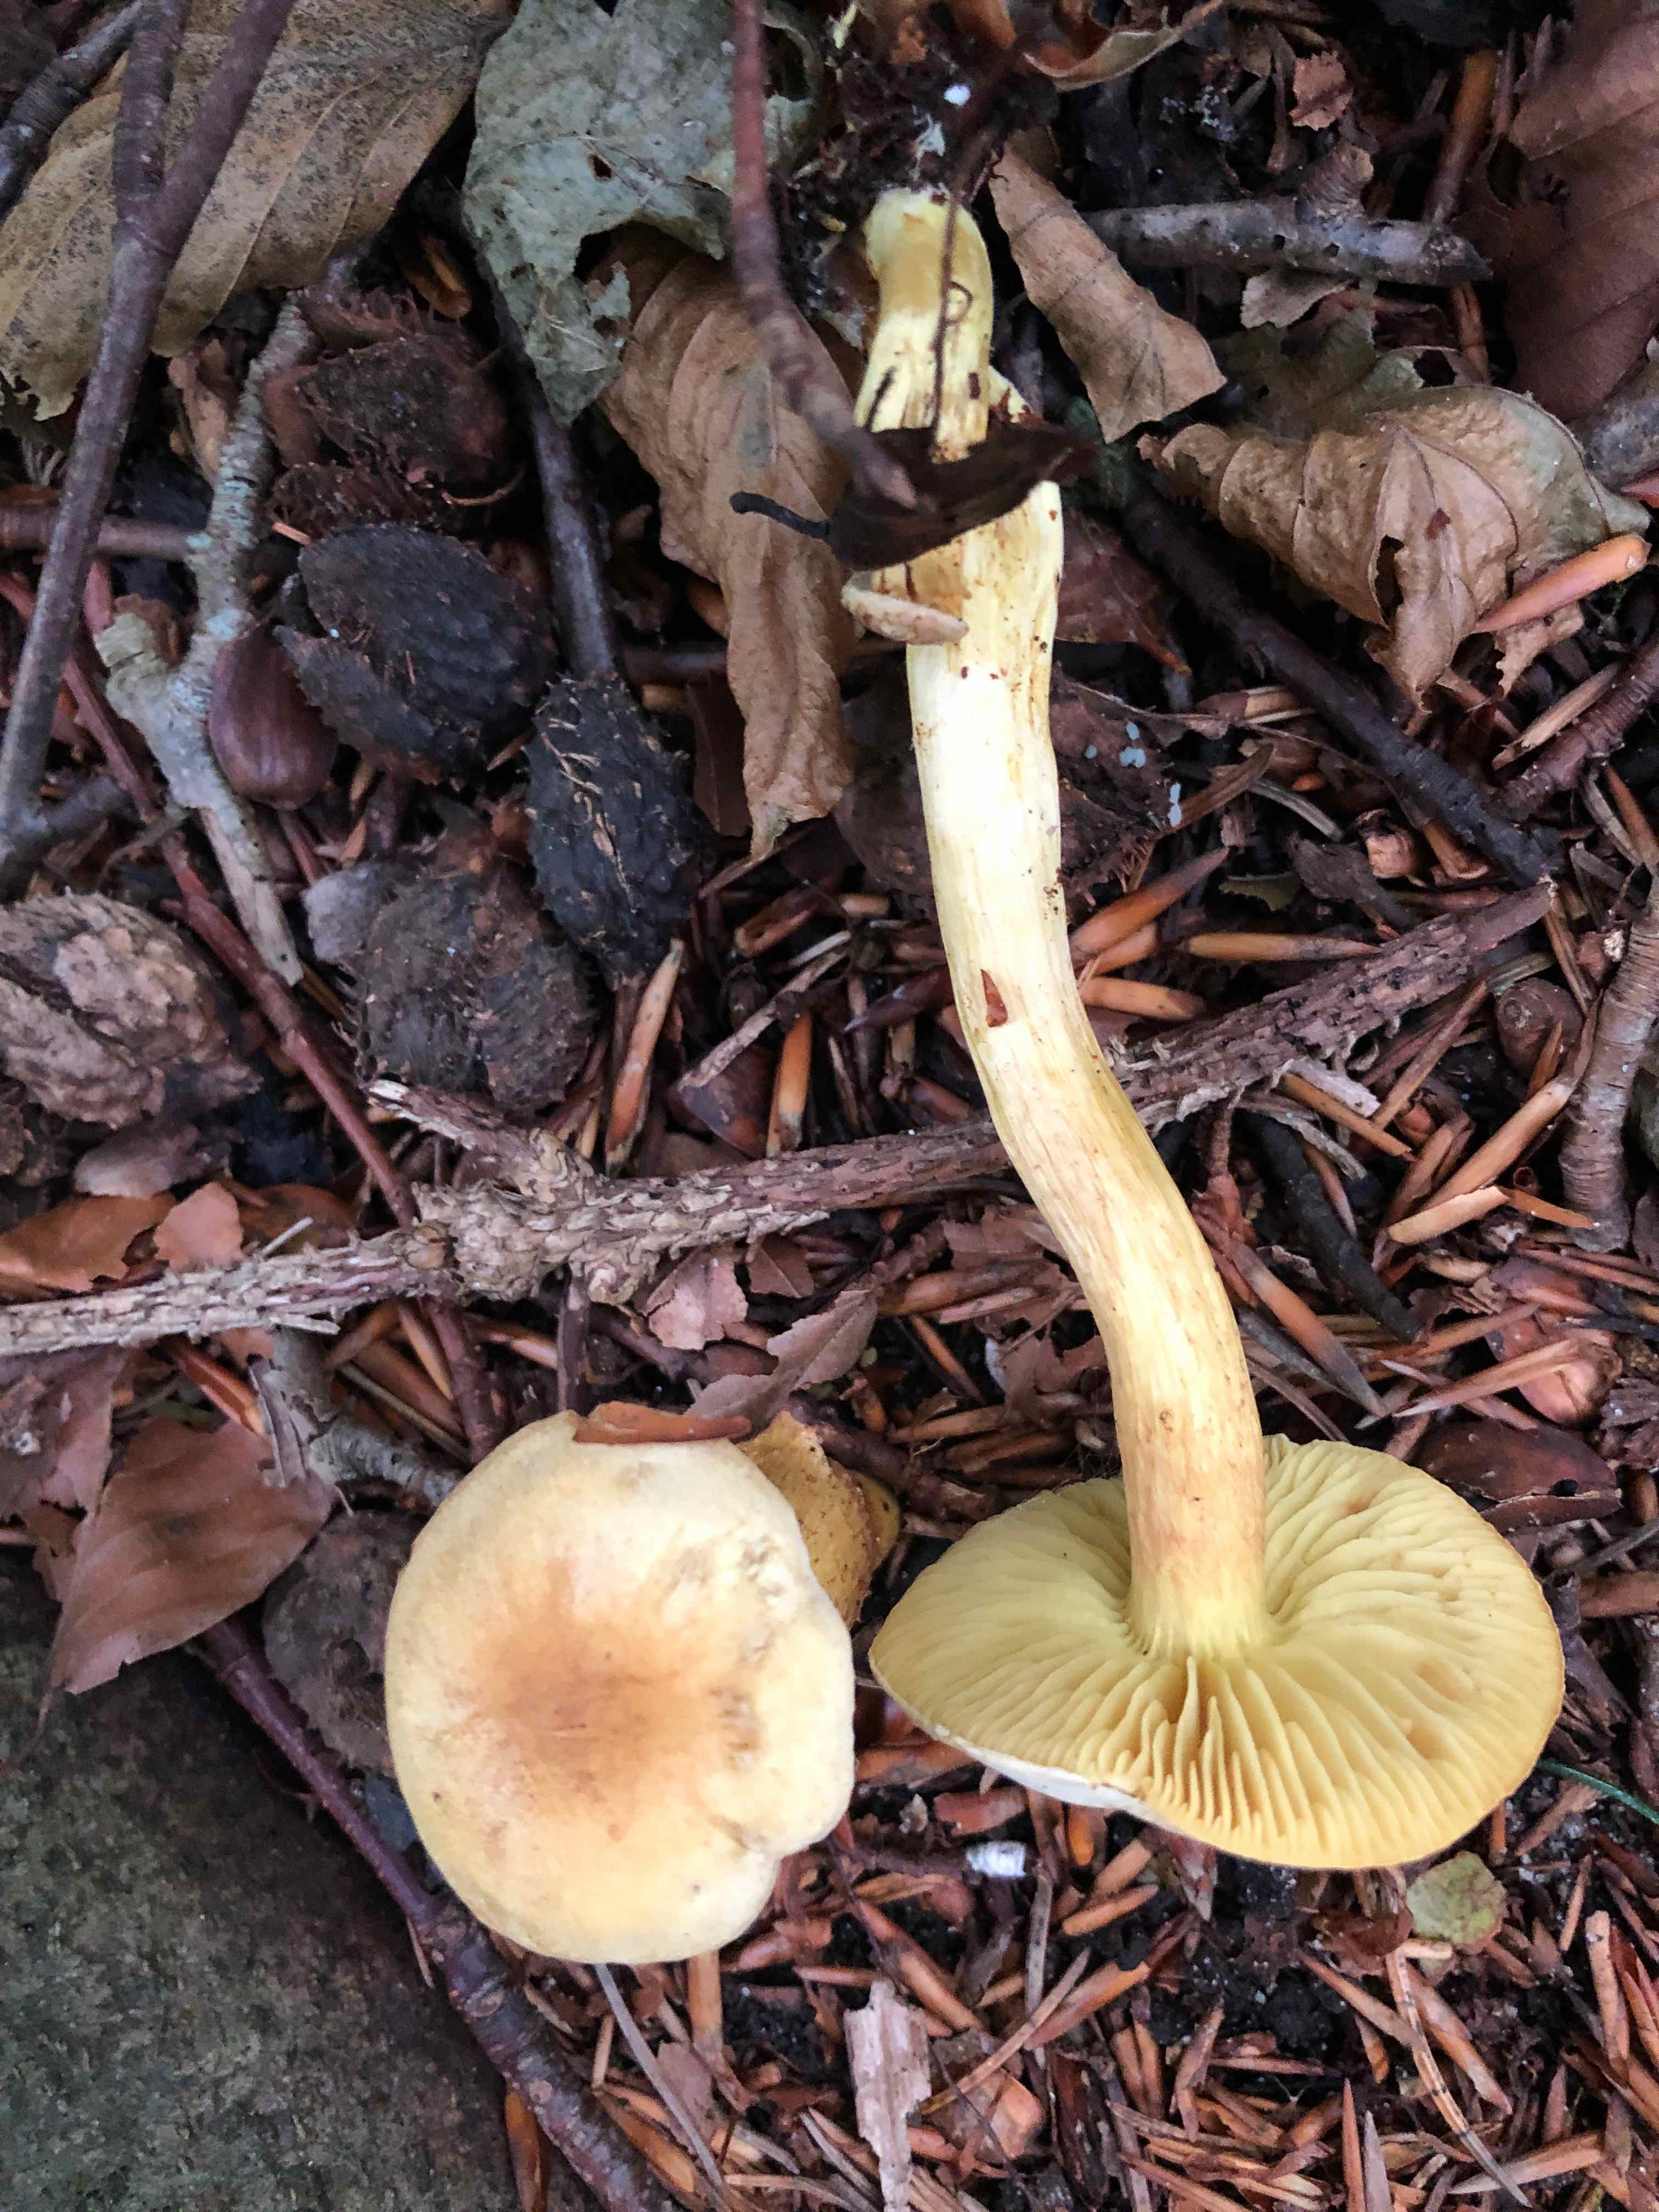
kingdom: Fungi
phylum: Basidiomycota
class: Agaricomycetes
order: Agaricales
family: Tricholomataceae
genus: Tricholoma
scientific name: Tricholoma sulphureum
